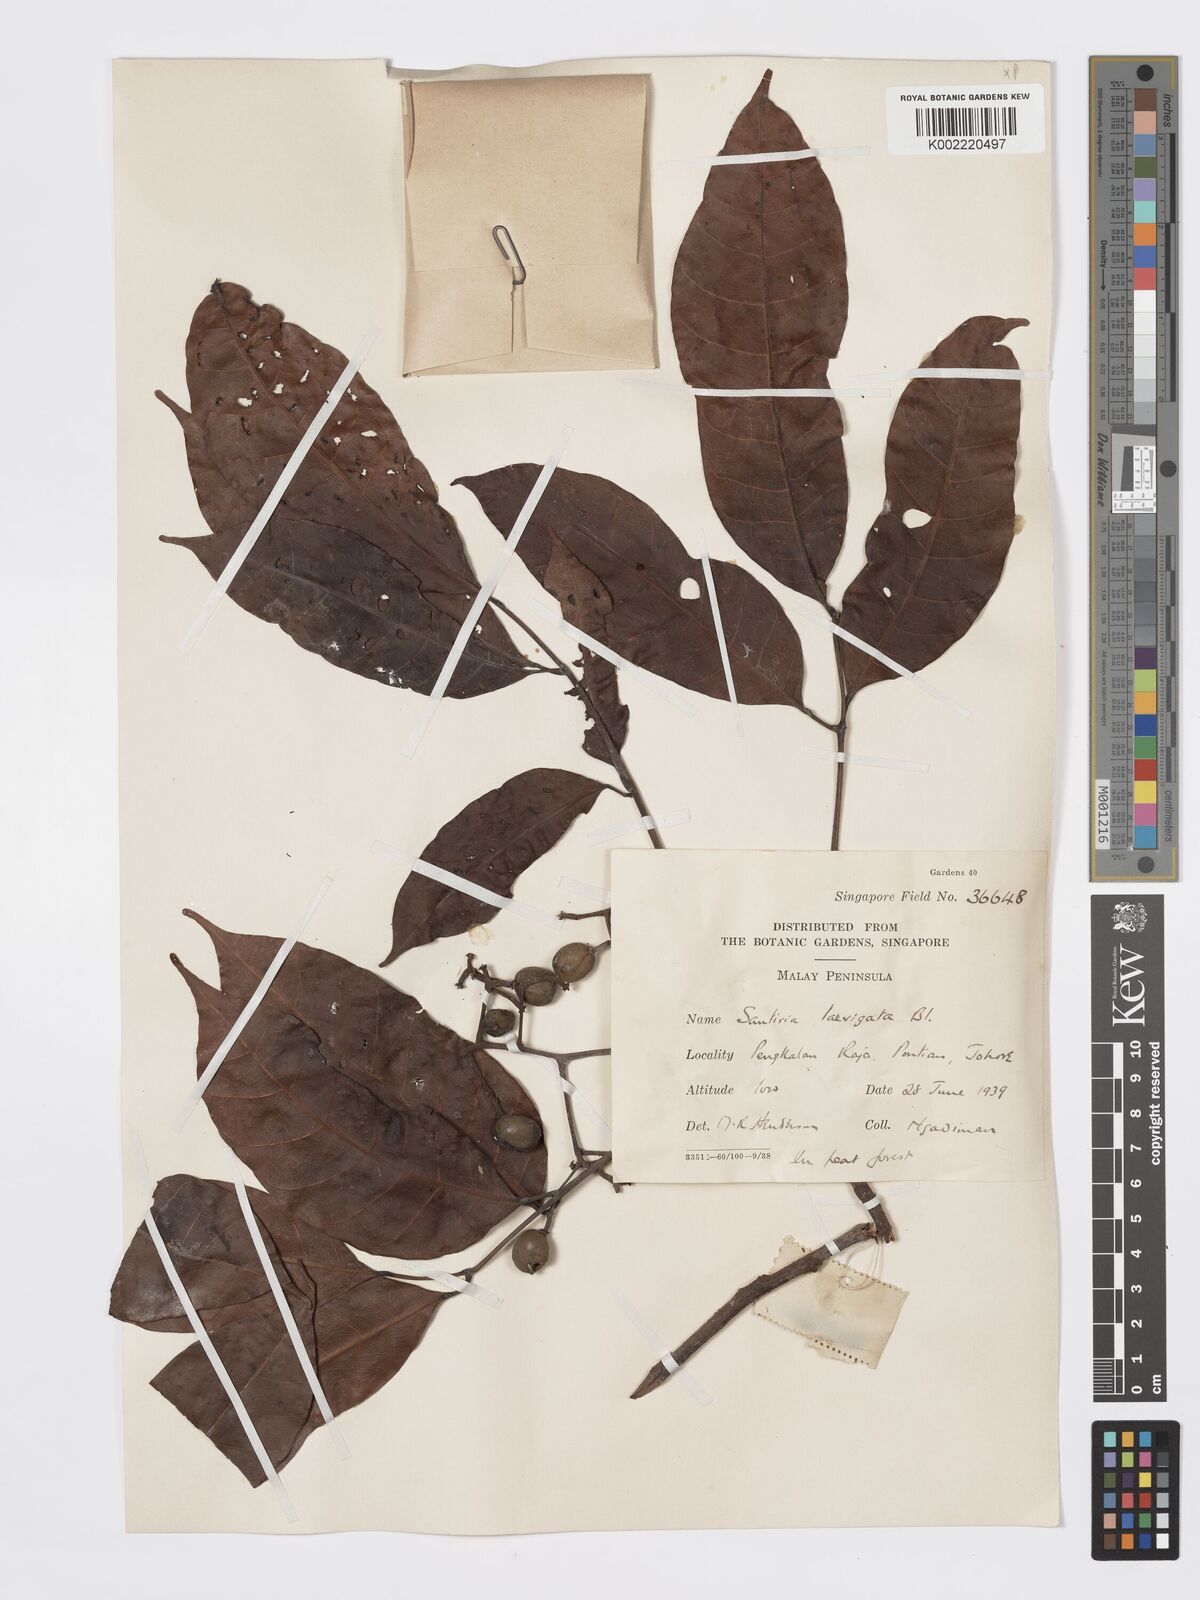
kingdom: Plantae
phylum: Tracheophyta
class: Magnoliopsida
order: Sapindales
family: Burseraceae
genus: Santiria
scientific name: Santiria laevigata
